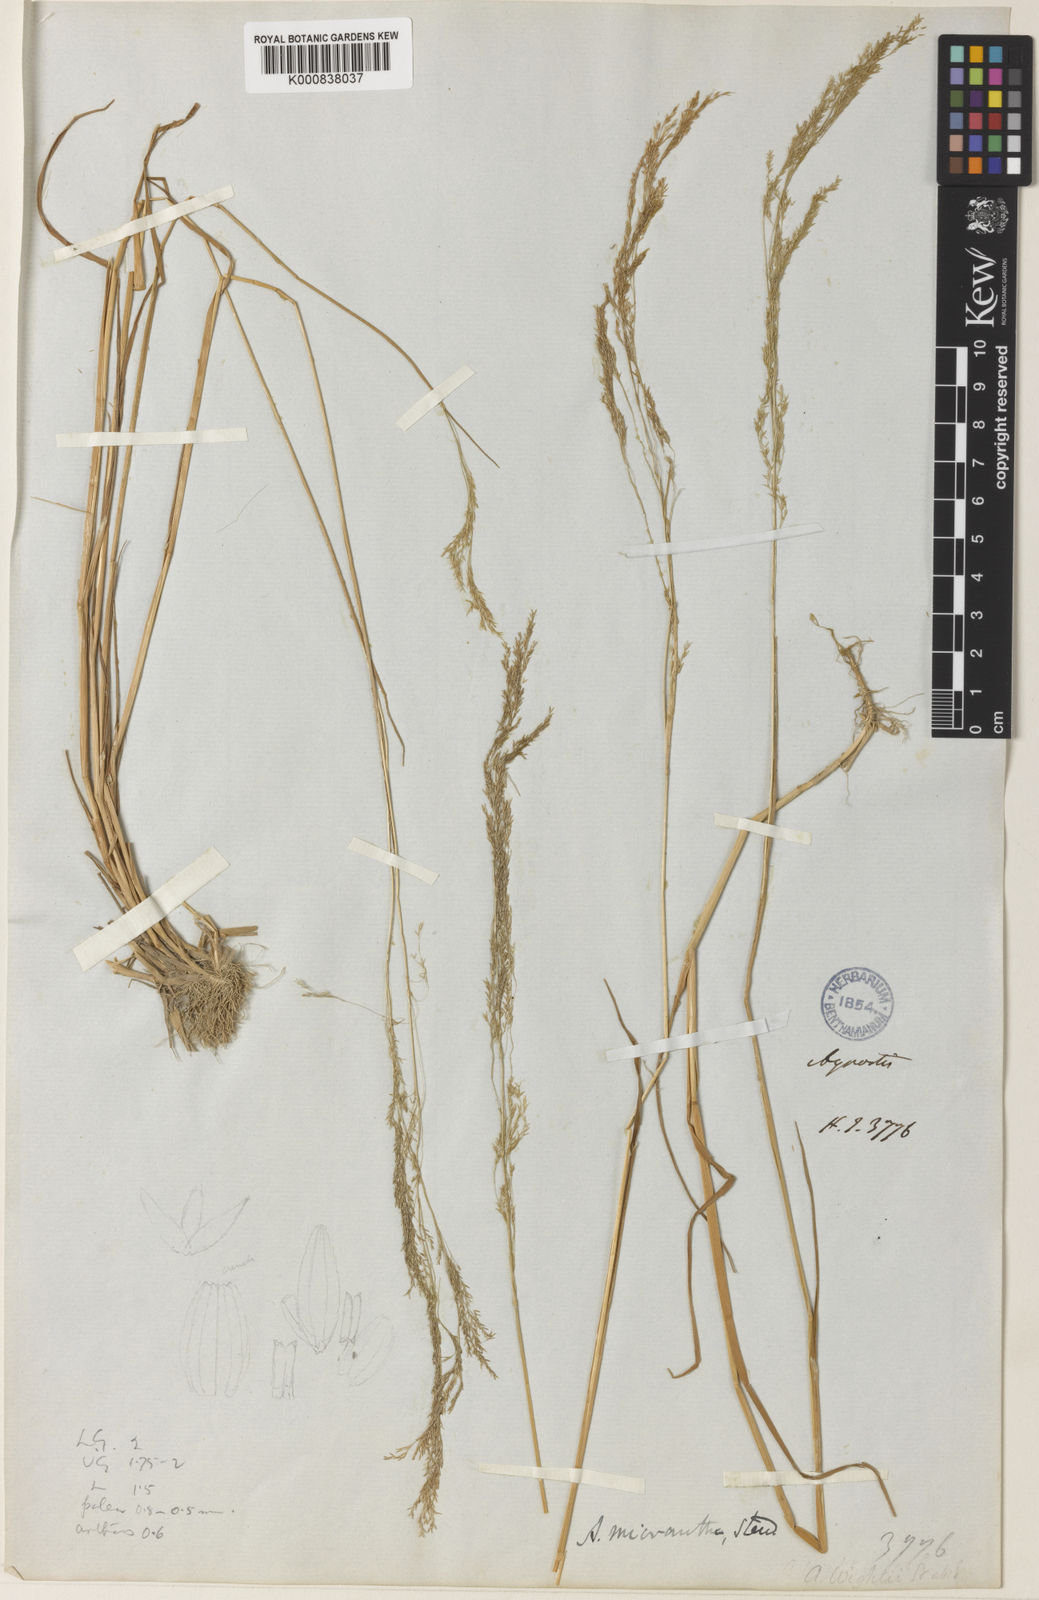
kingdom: Plantae
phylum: Tracheophyta
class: Liliopsida
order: Poales
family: Poaceae
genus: Agrostis
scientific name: Agrostis micrantha
